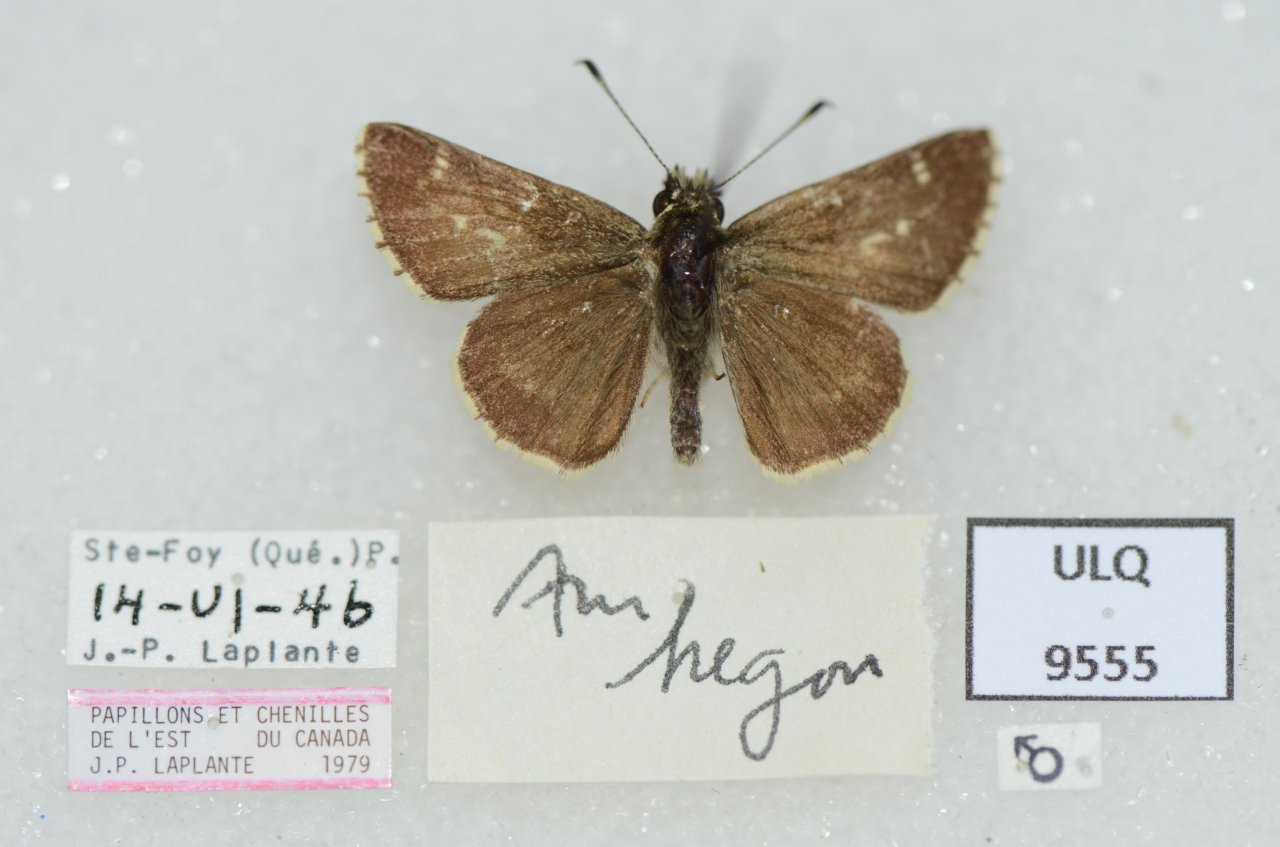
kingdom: Animalia
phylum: Arthropoda
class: Insecta
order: Lepidoptera
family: Hesperiidae
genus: Mastor
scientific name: Mastor hegon
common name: Pepper and Salt Skipper
